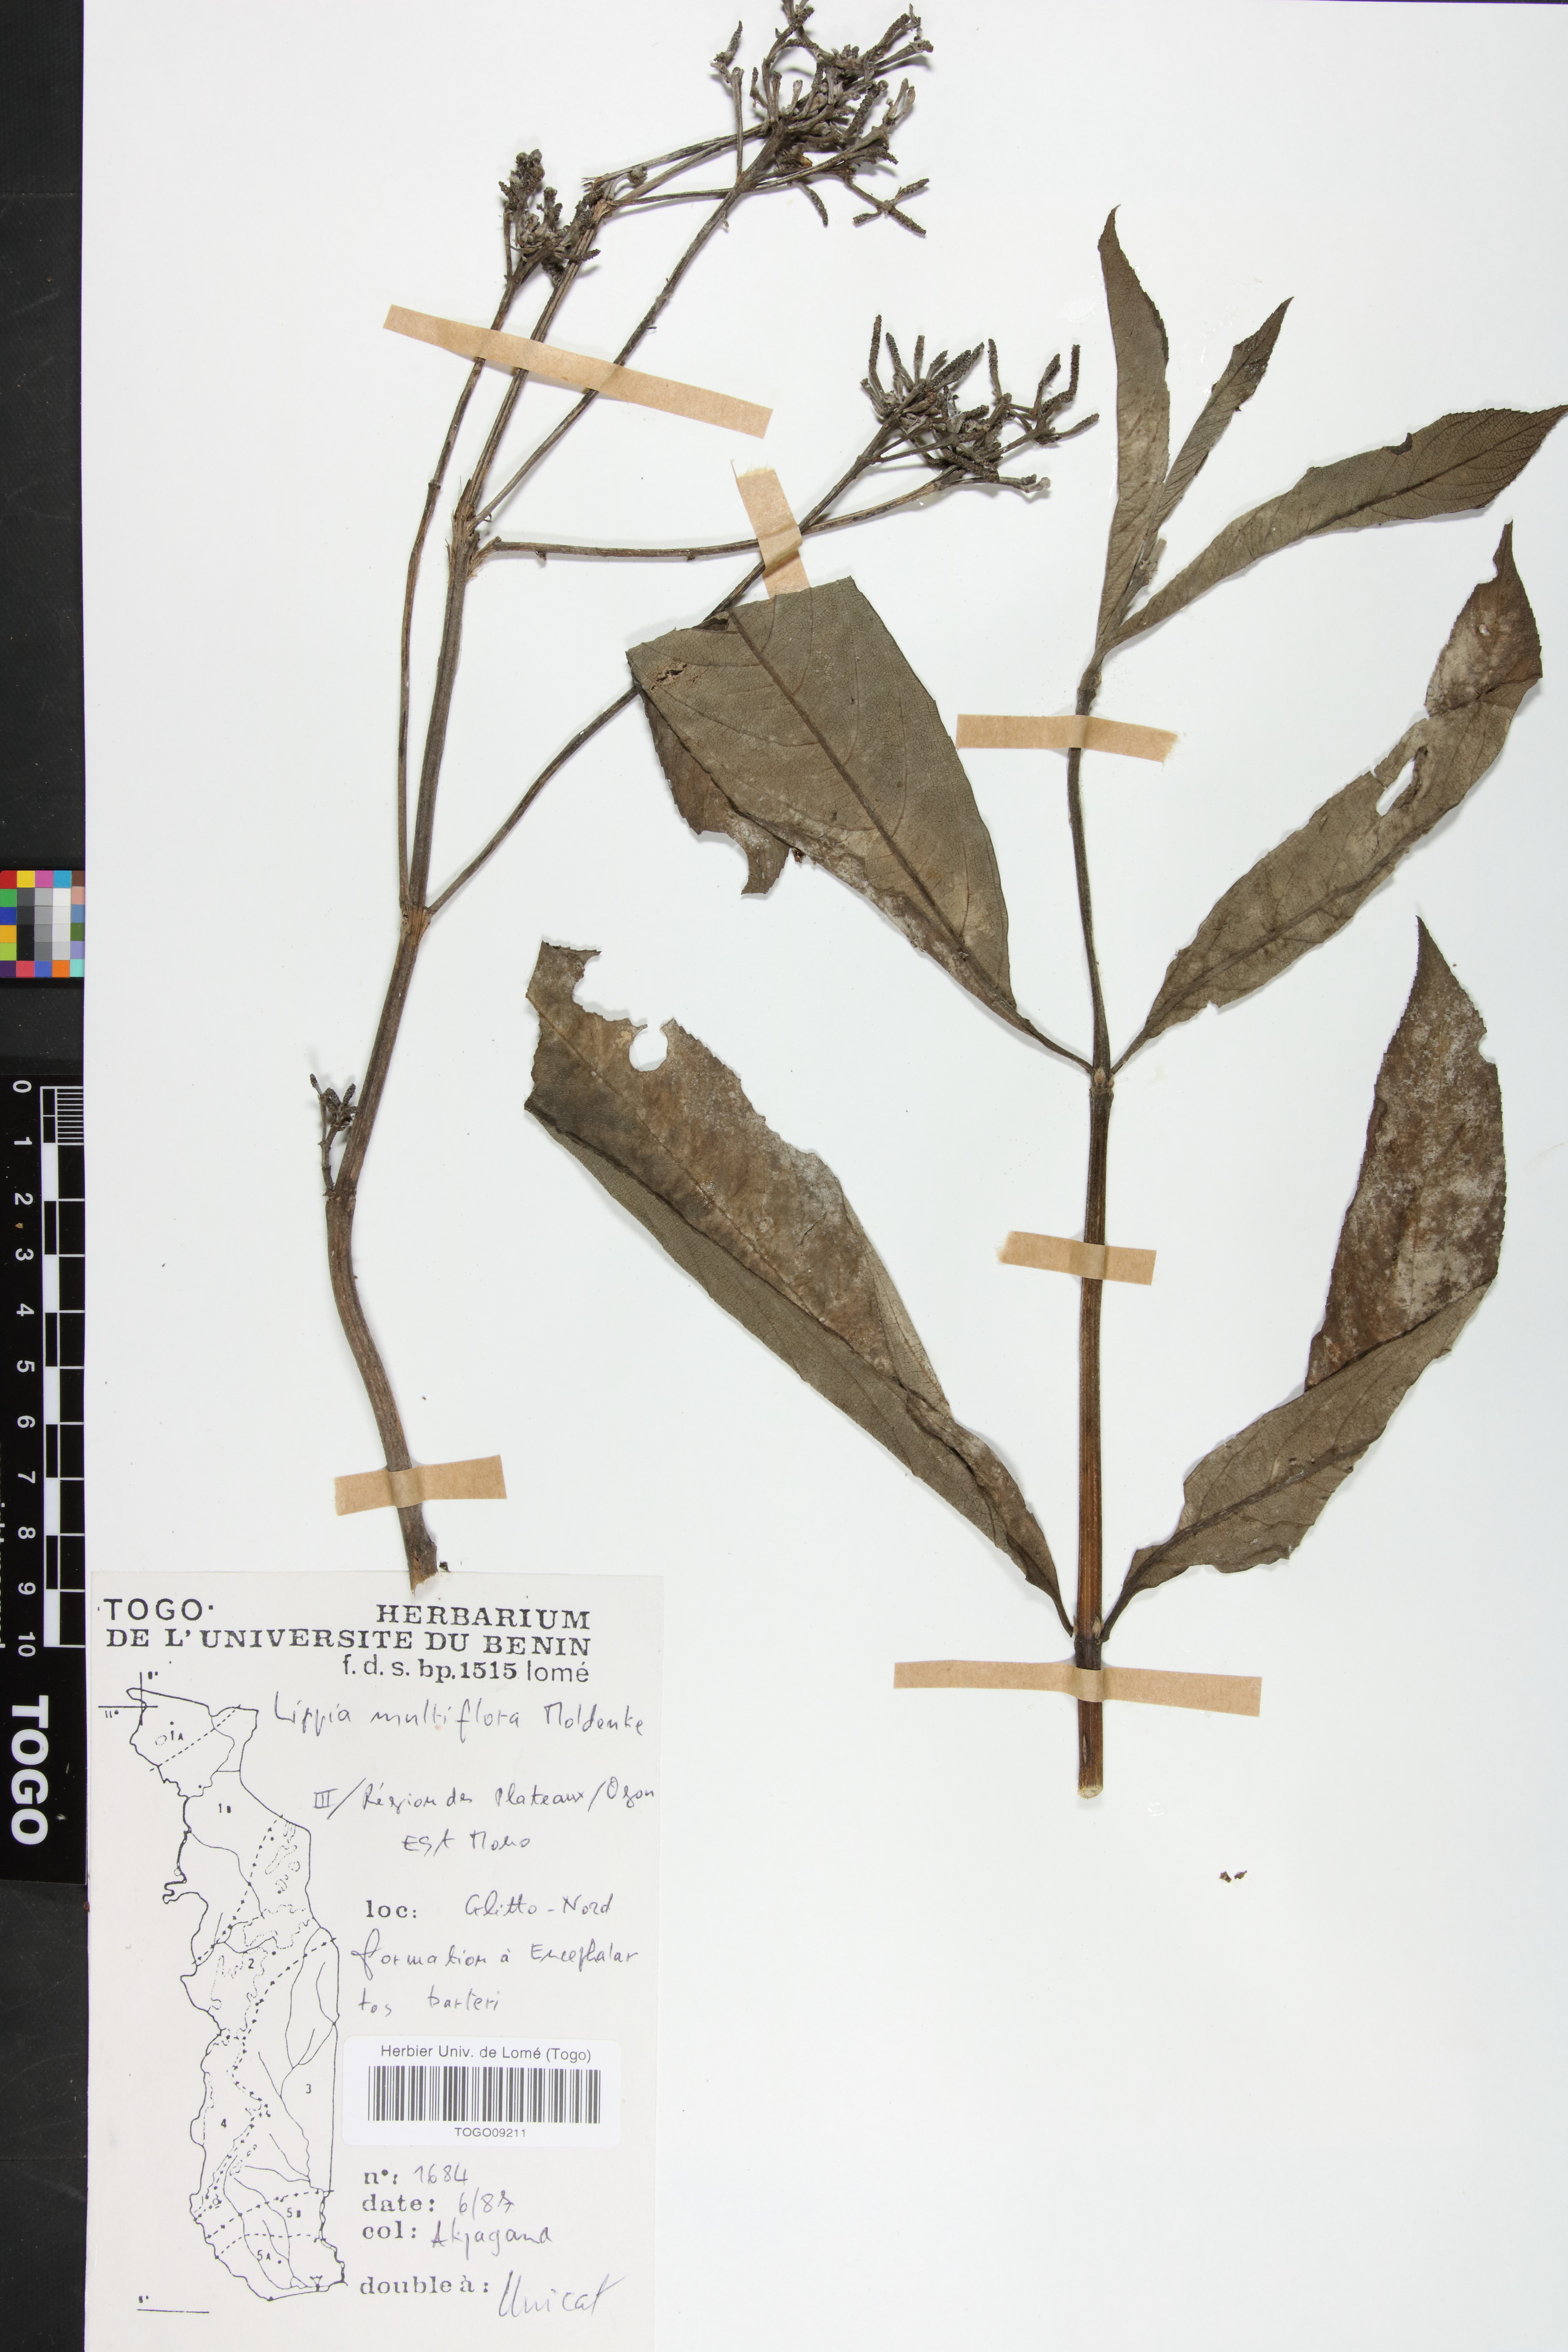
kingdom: Plantae
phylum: Tracheophyta
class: Magnoliopsida
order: Lamiales
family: Verbenaceae
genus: Lippia
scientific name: Lippia multiflora
